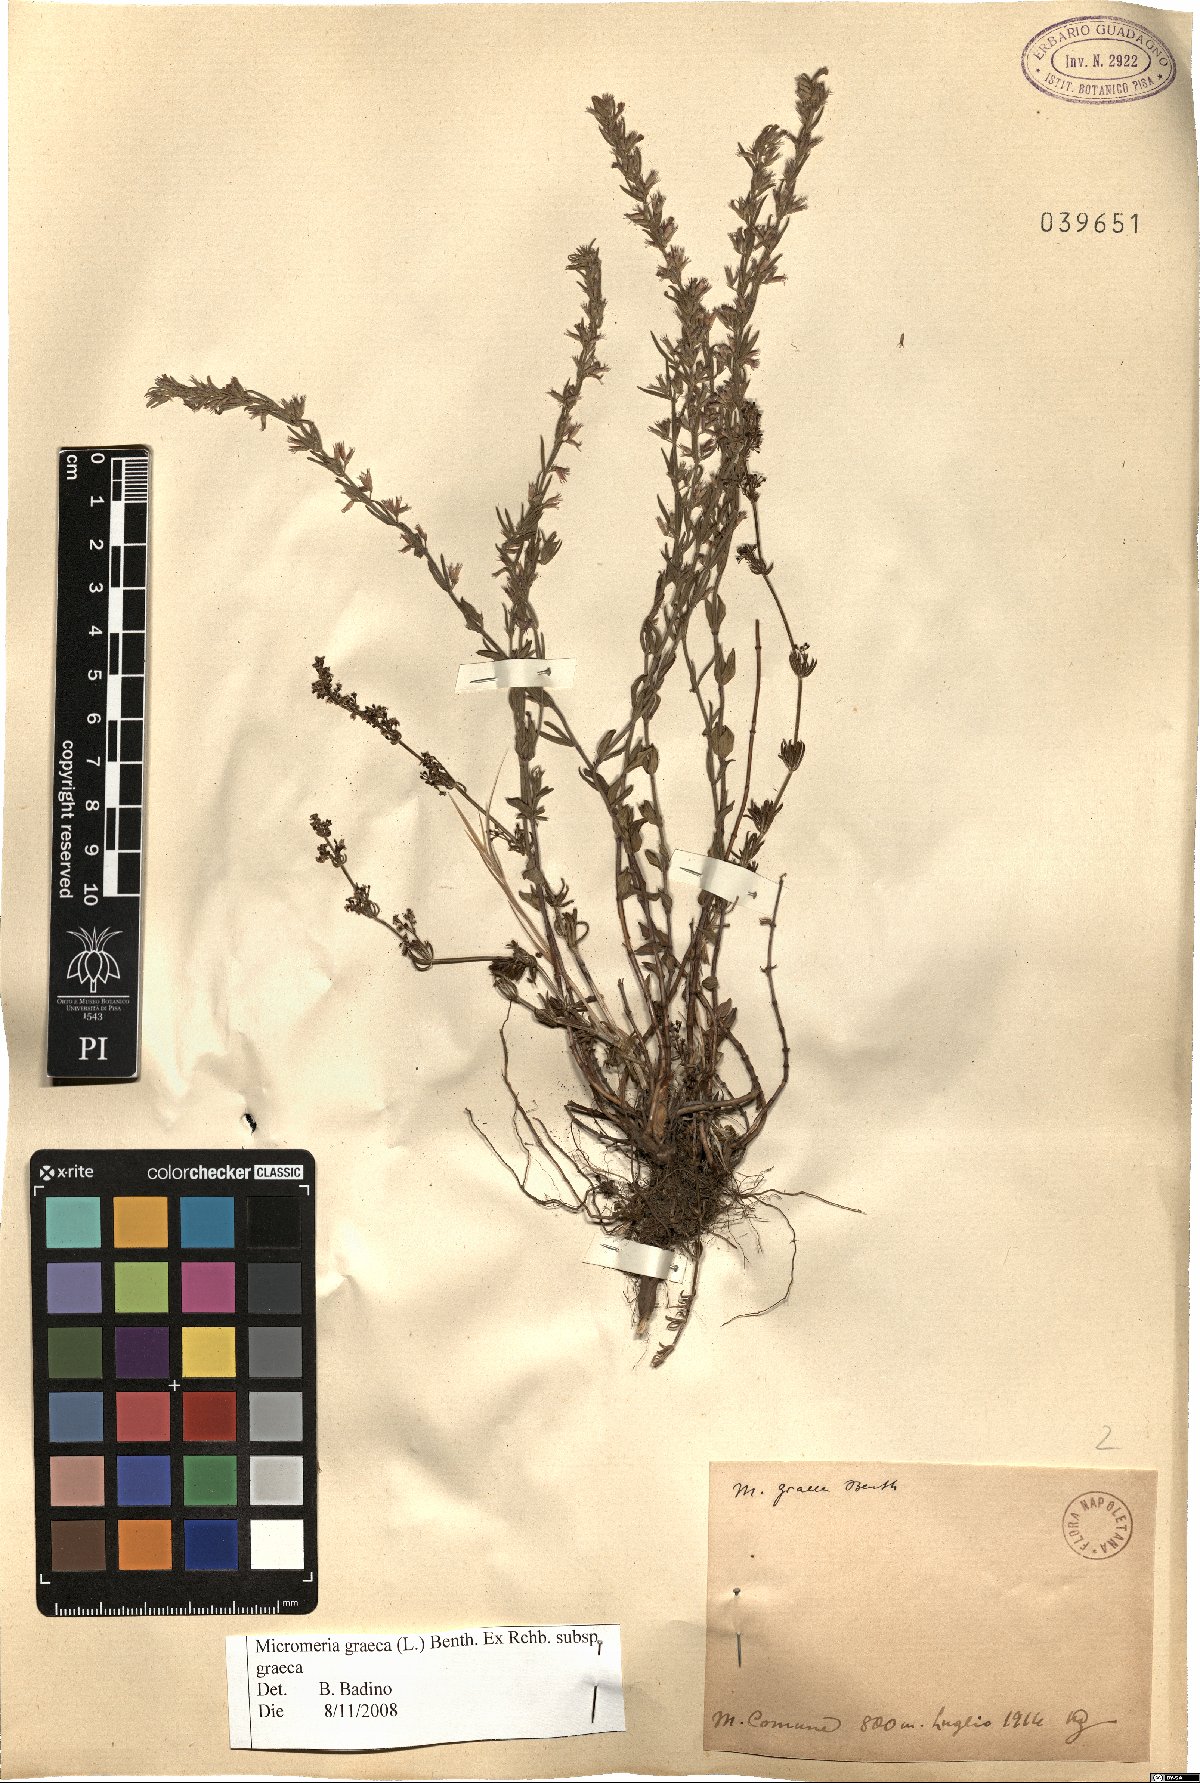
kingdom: Plantae
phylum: Tracheophyta
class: Magnoliopsida
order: Lamiales
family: Lamiaceae
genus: Micromeria
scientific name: Micromeria graeca
